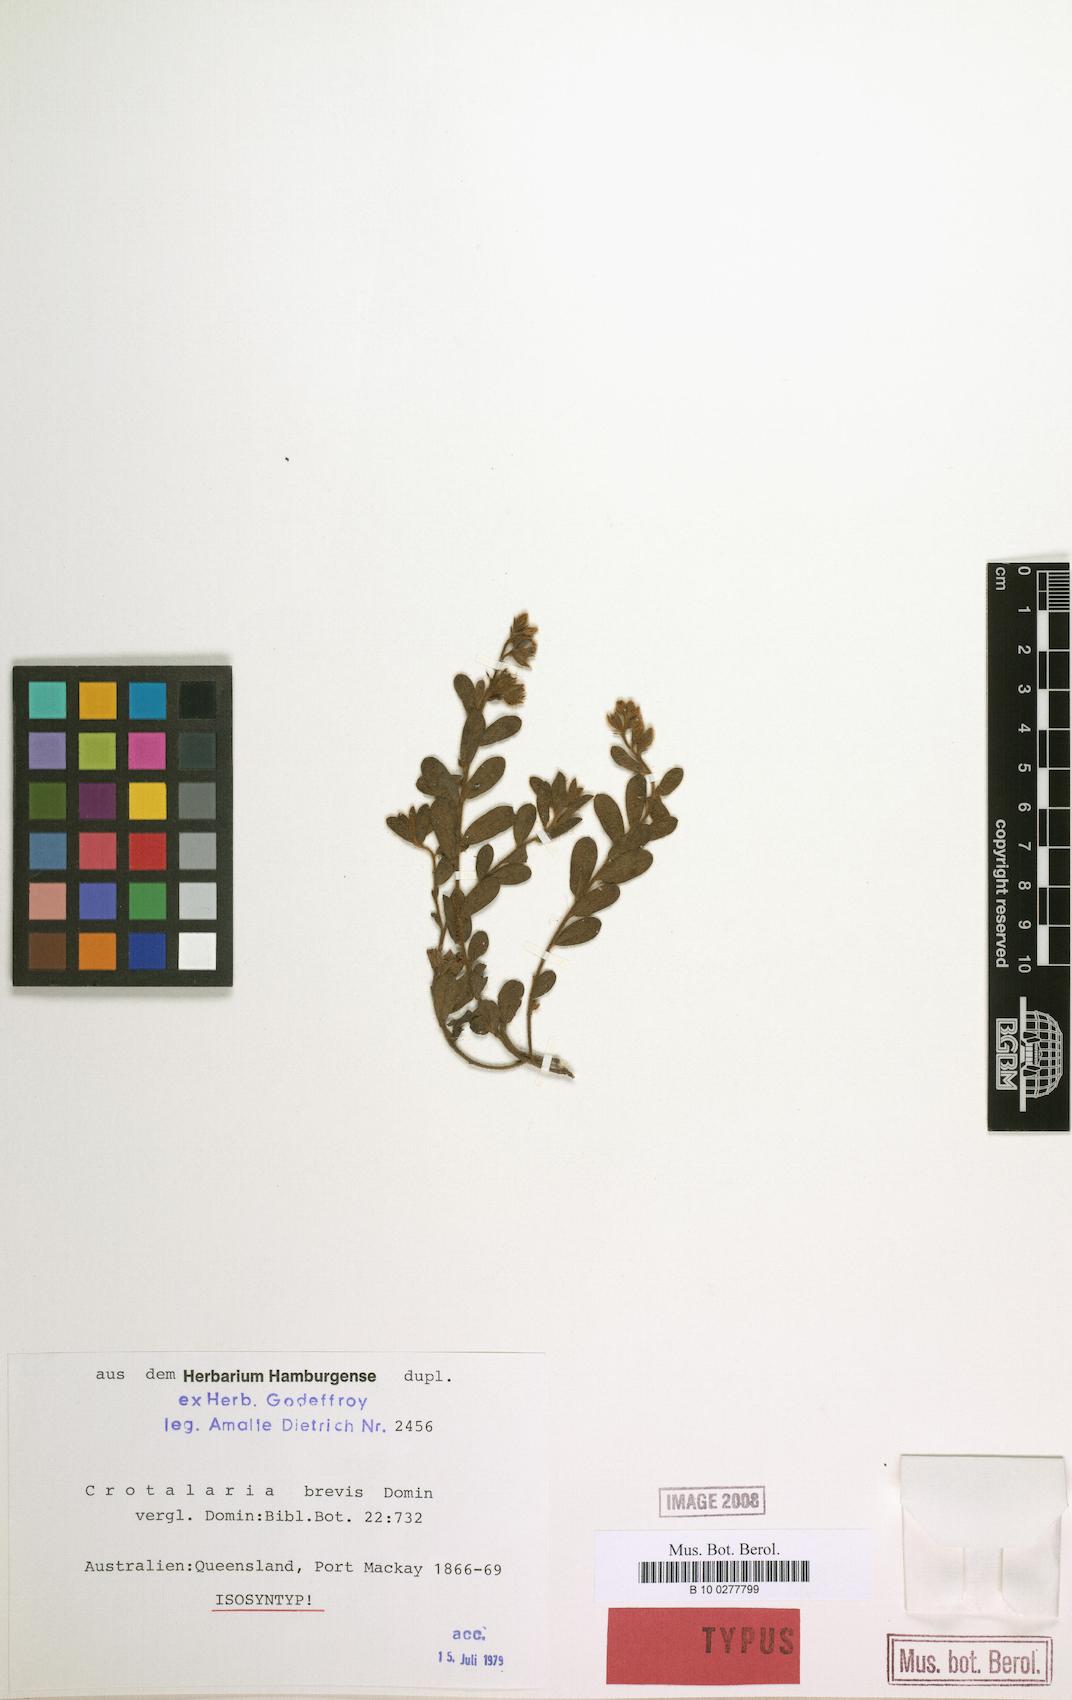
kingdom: Plantae
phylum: Tracheophyta
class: Magnoliopsida
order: Fabales
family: Fabaceae
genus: Crotalaria
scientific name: Crotalaria brevis
